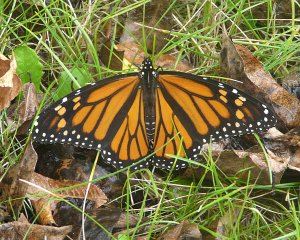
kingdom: Animalia
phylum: Arthropoda
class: Insecta
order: Lepidoptera
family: Nymphalidae
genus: Danaus
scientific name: Danaus plexippus
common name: Monarch
